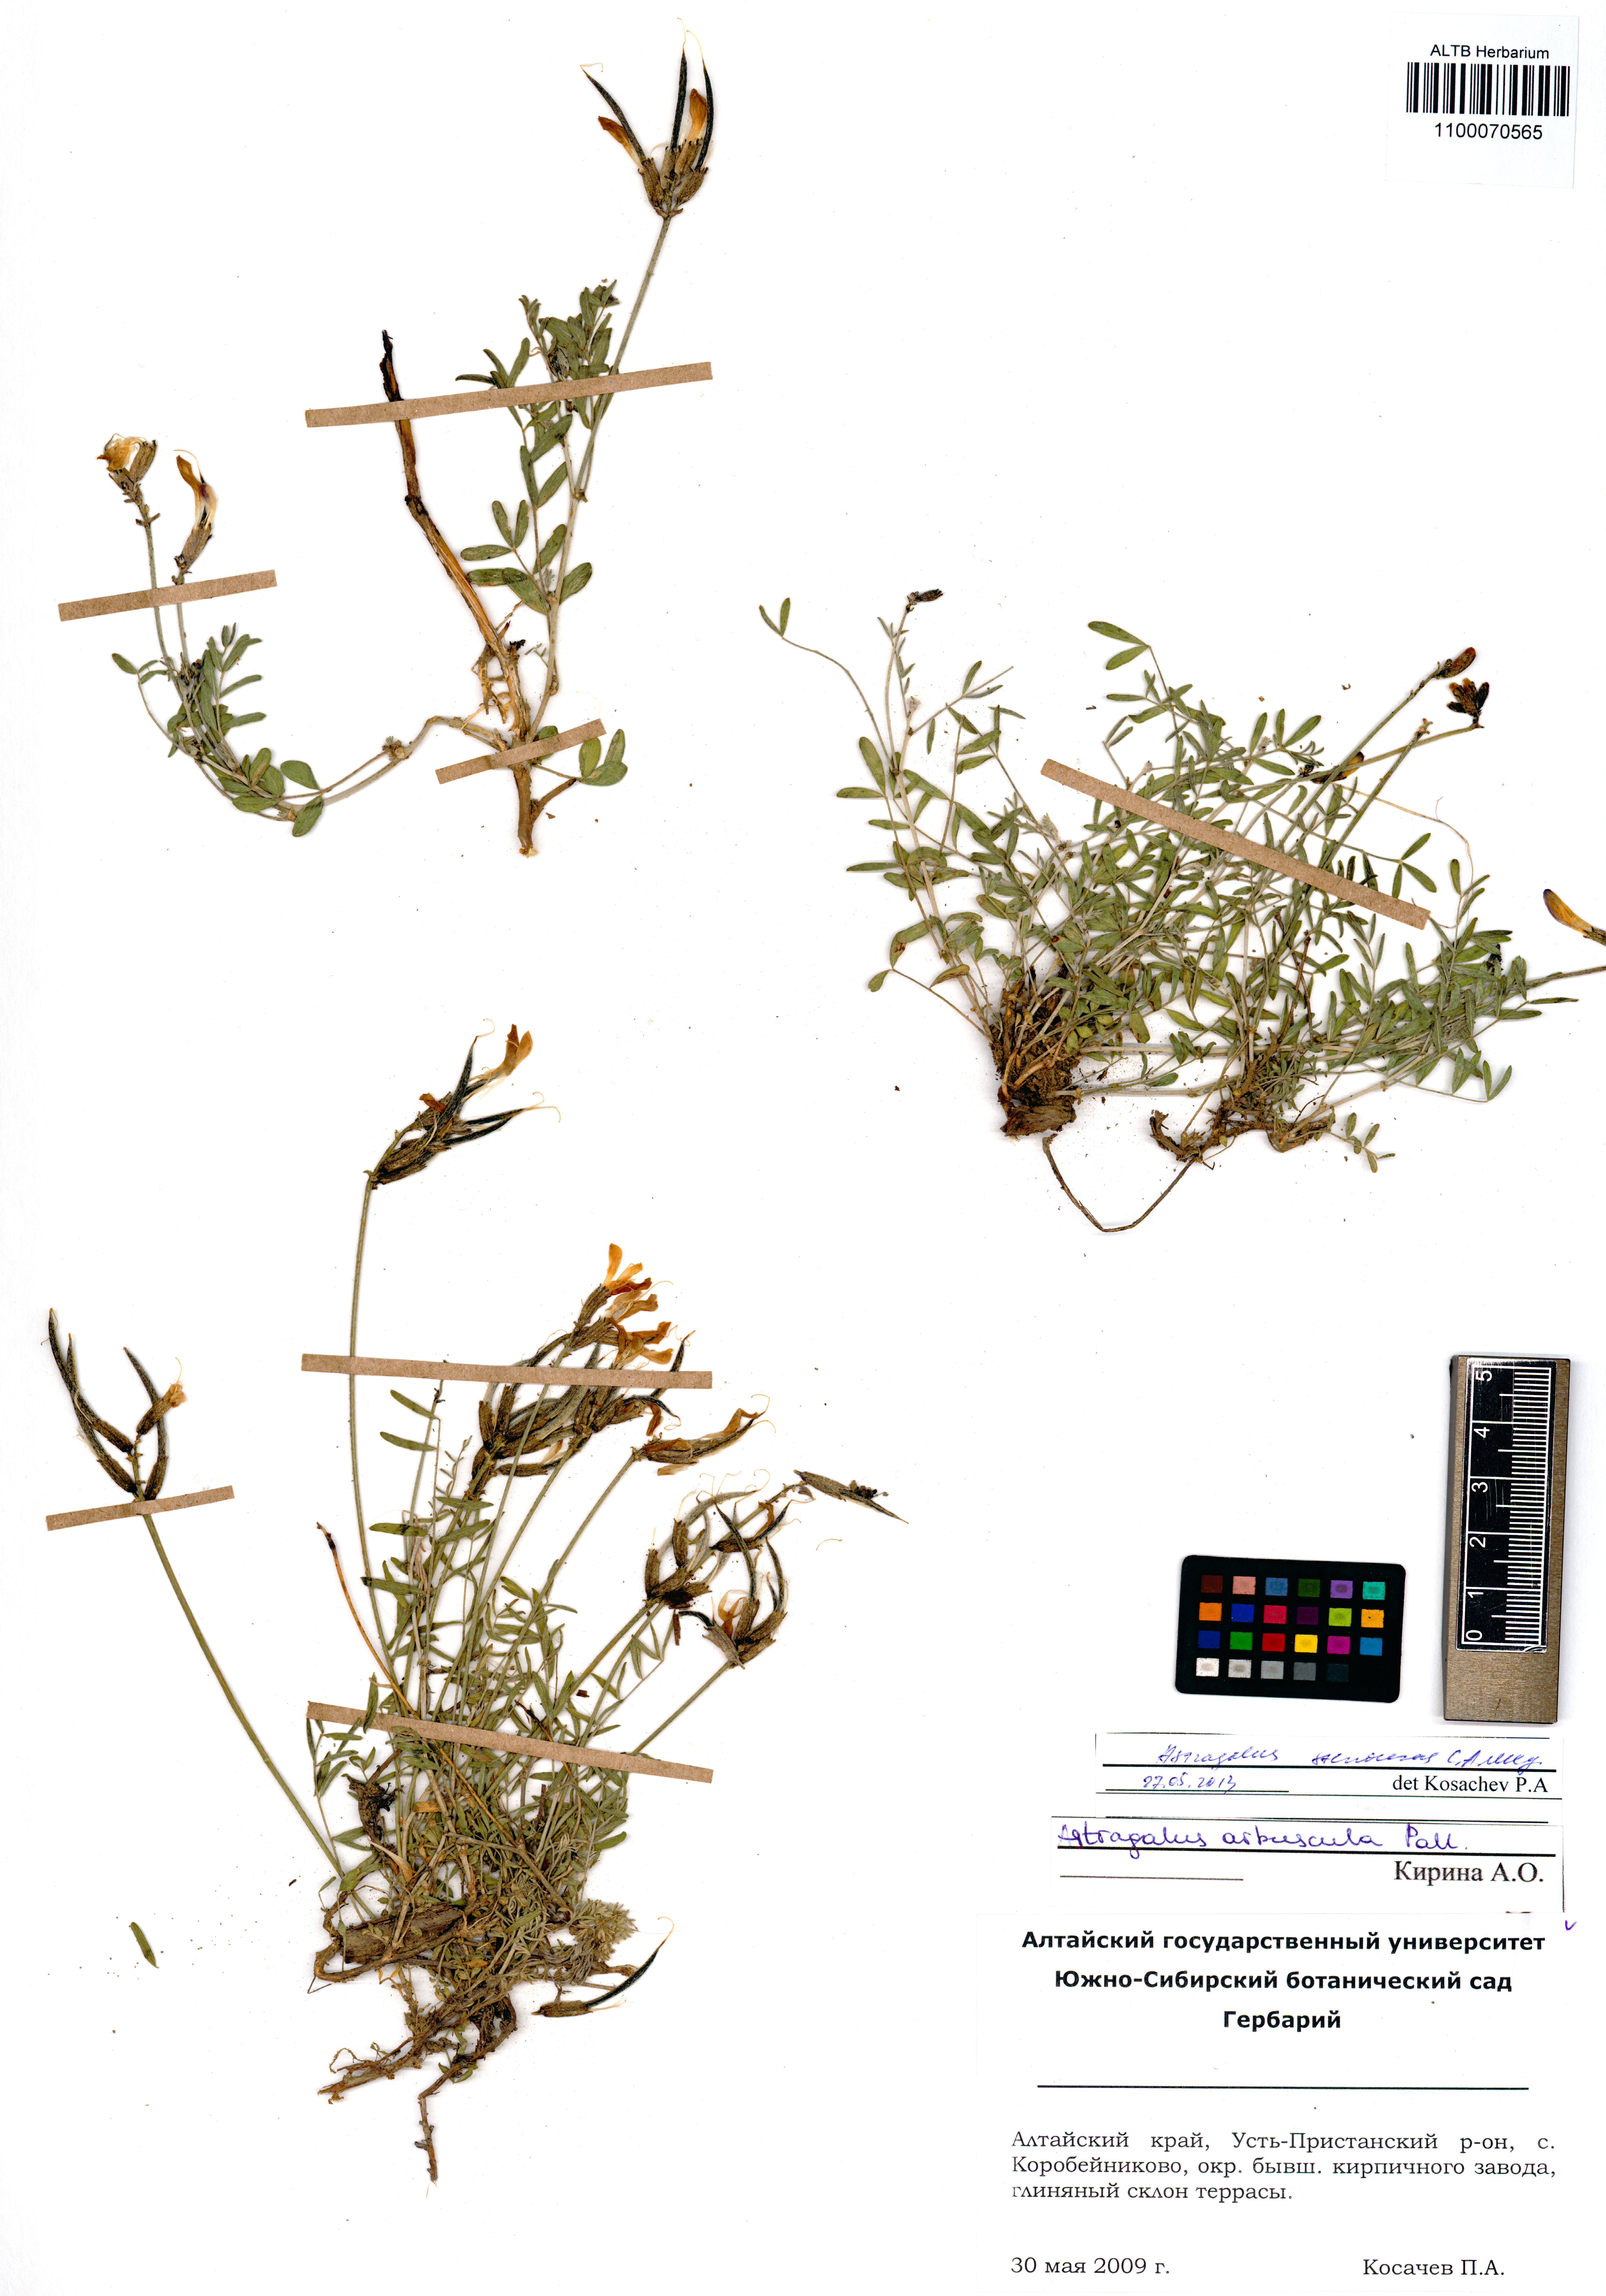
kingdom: Plantae
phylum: Tracheophyta
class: Magnoliopsida
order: Fabales
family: Fabaceae
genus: Astragalus
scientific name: Astragalus stenoceras
